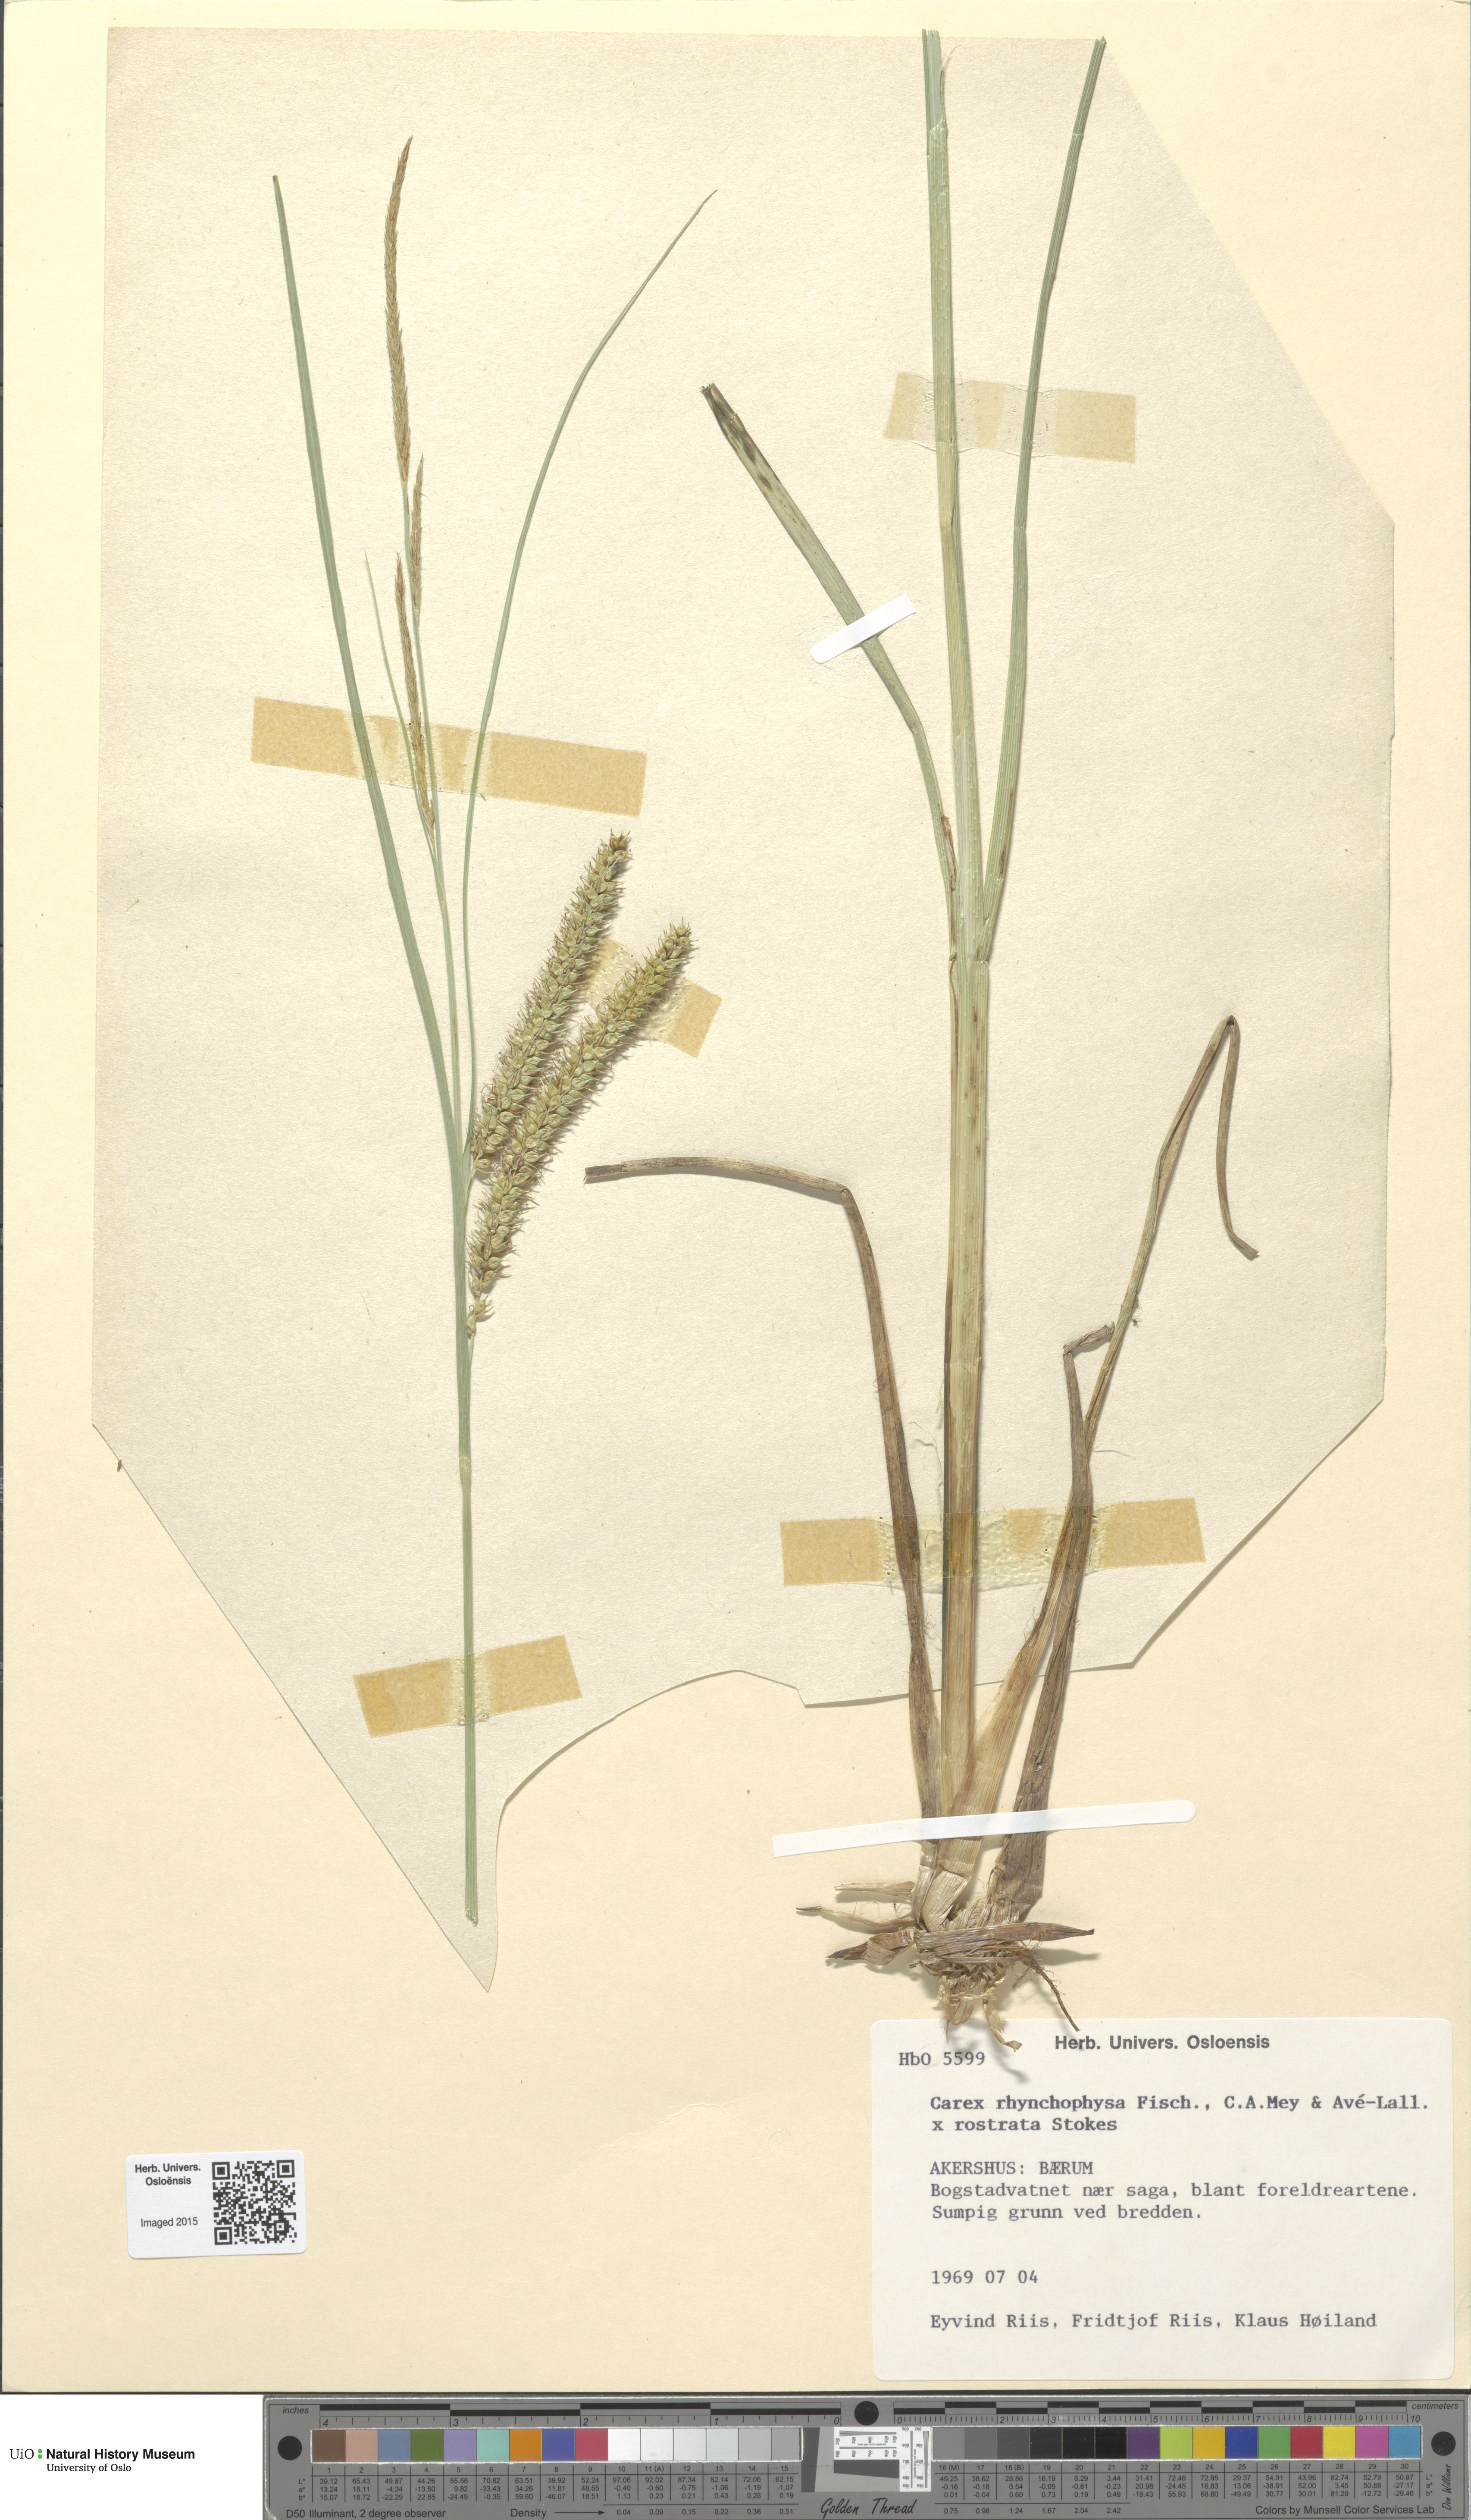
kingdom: Plantae
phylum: Tracheophyta
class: Liliopsida
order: Poales
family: Cyperaceae
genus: Carex
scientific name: Carex
